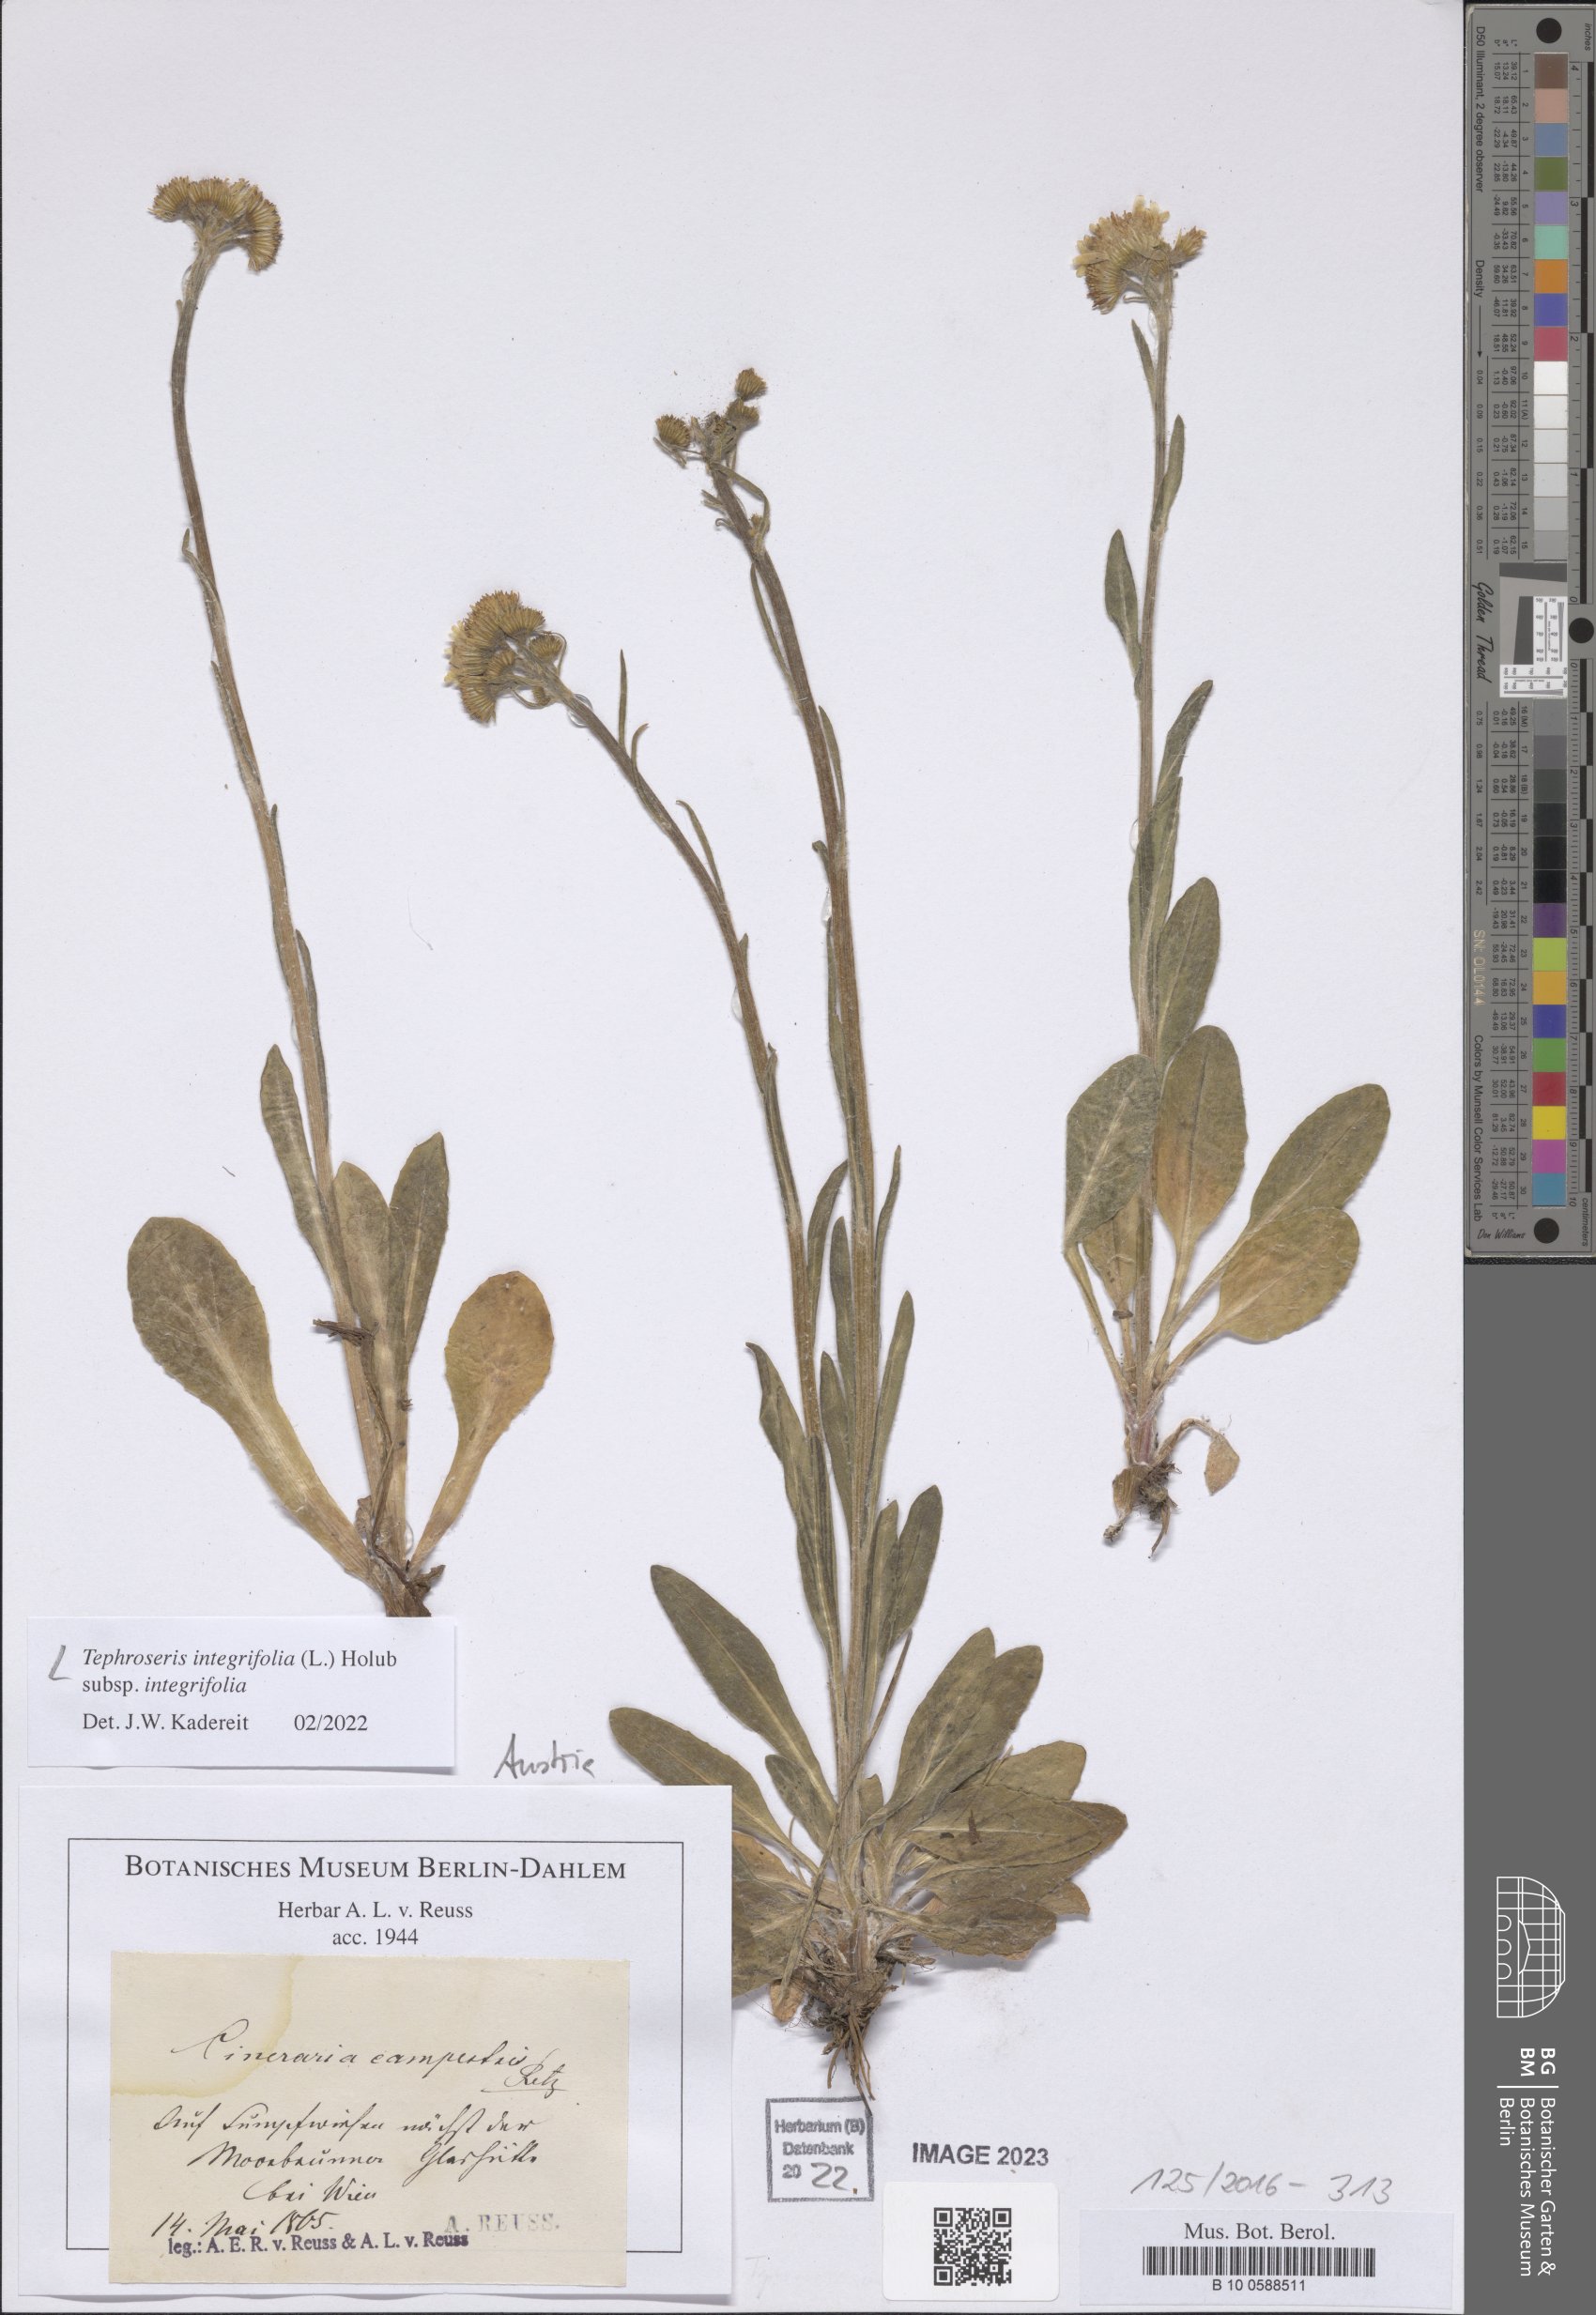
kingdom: Plantae
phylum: Tracheophyta
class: Magnoliopsida
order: Asterales
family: Asteraceae
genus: Tephroseris
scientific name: Tephroseris integrifolia
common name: Field fleawort
